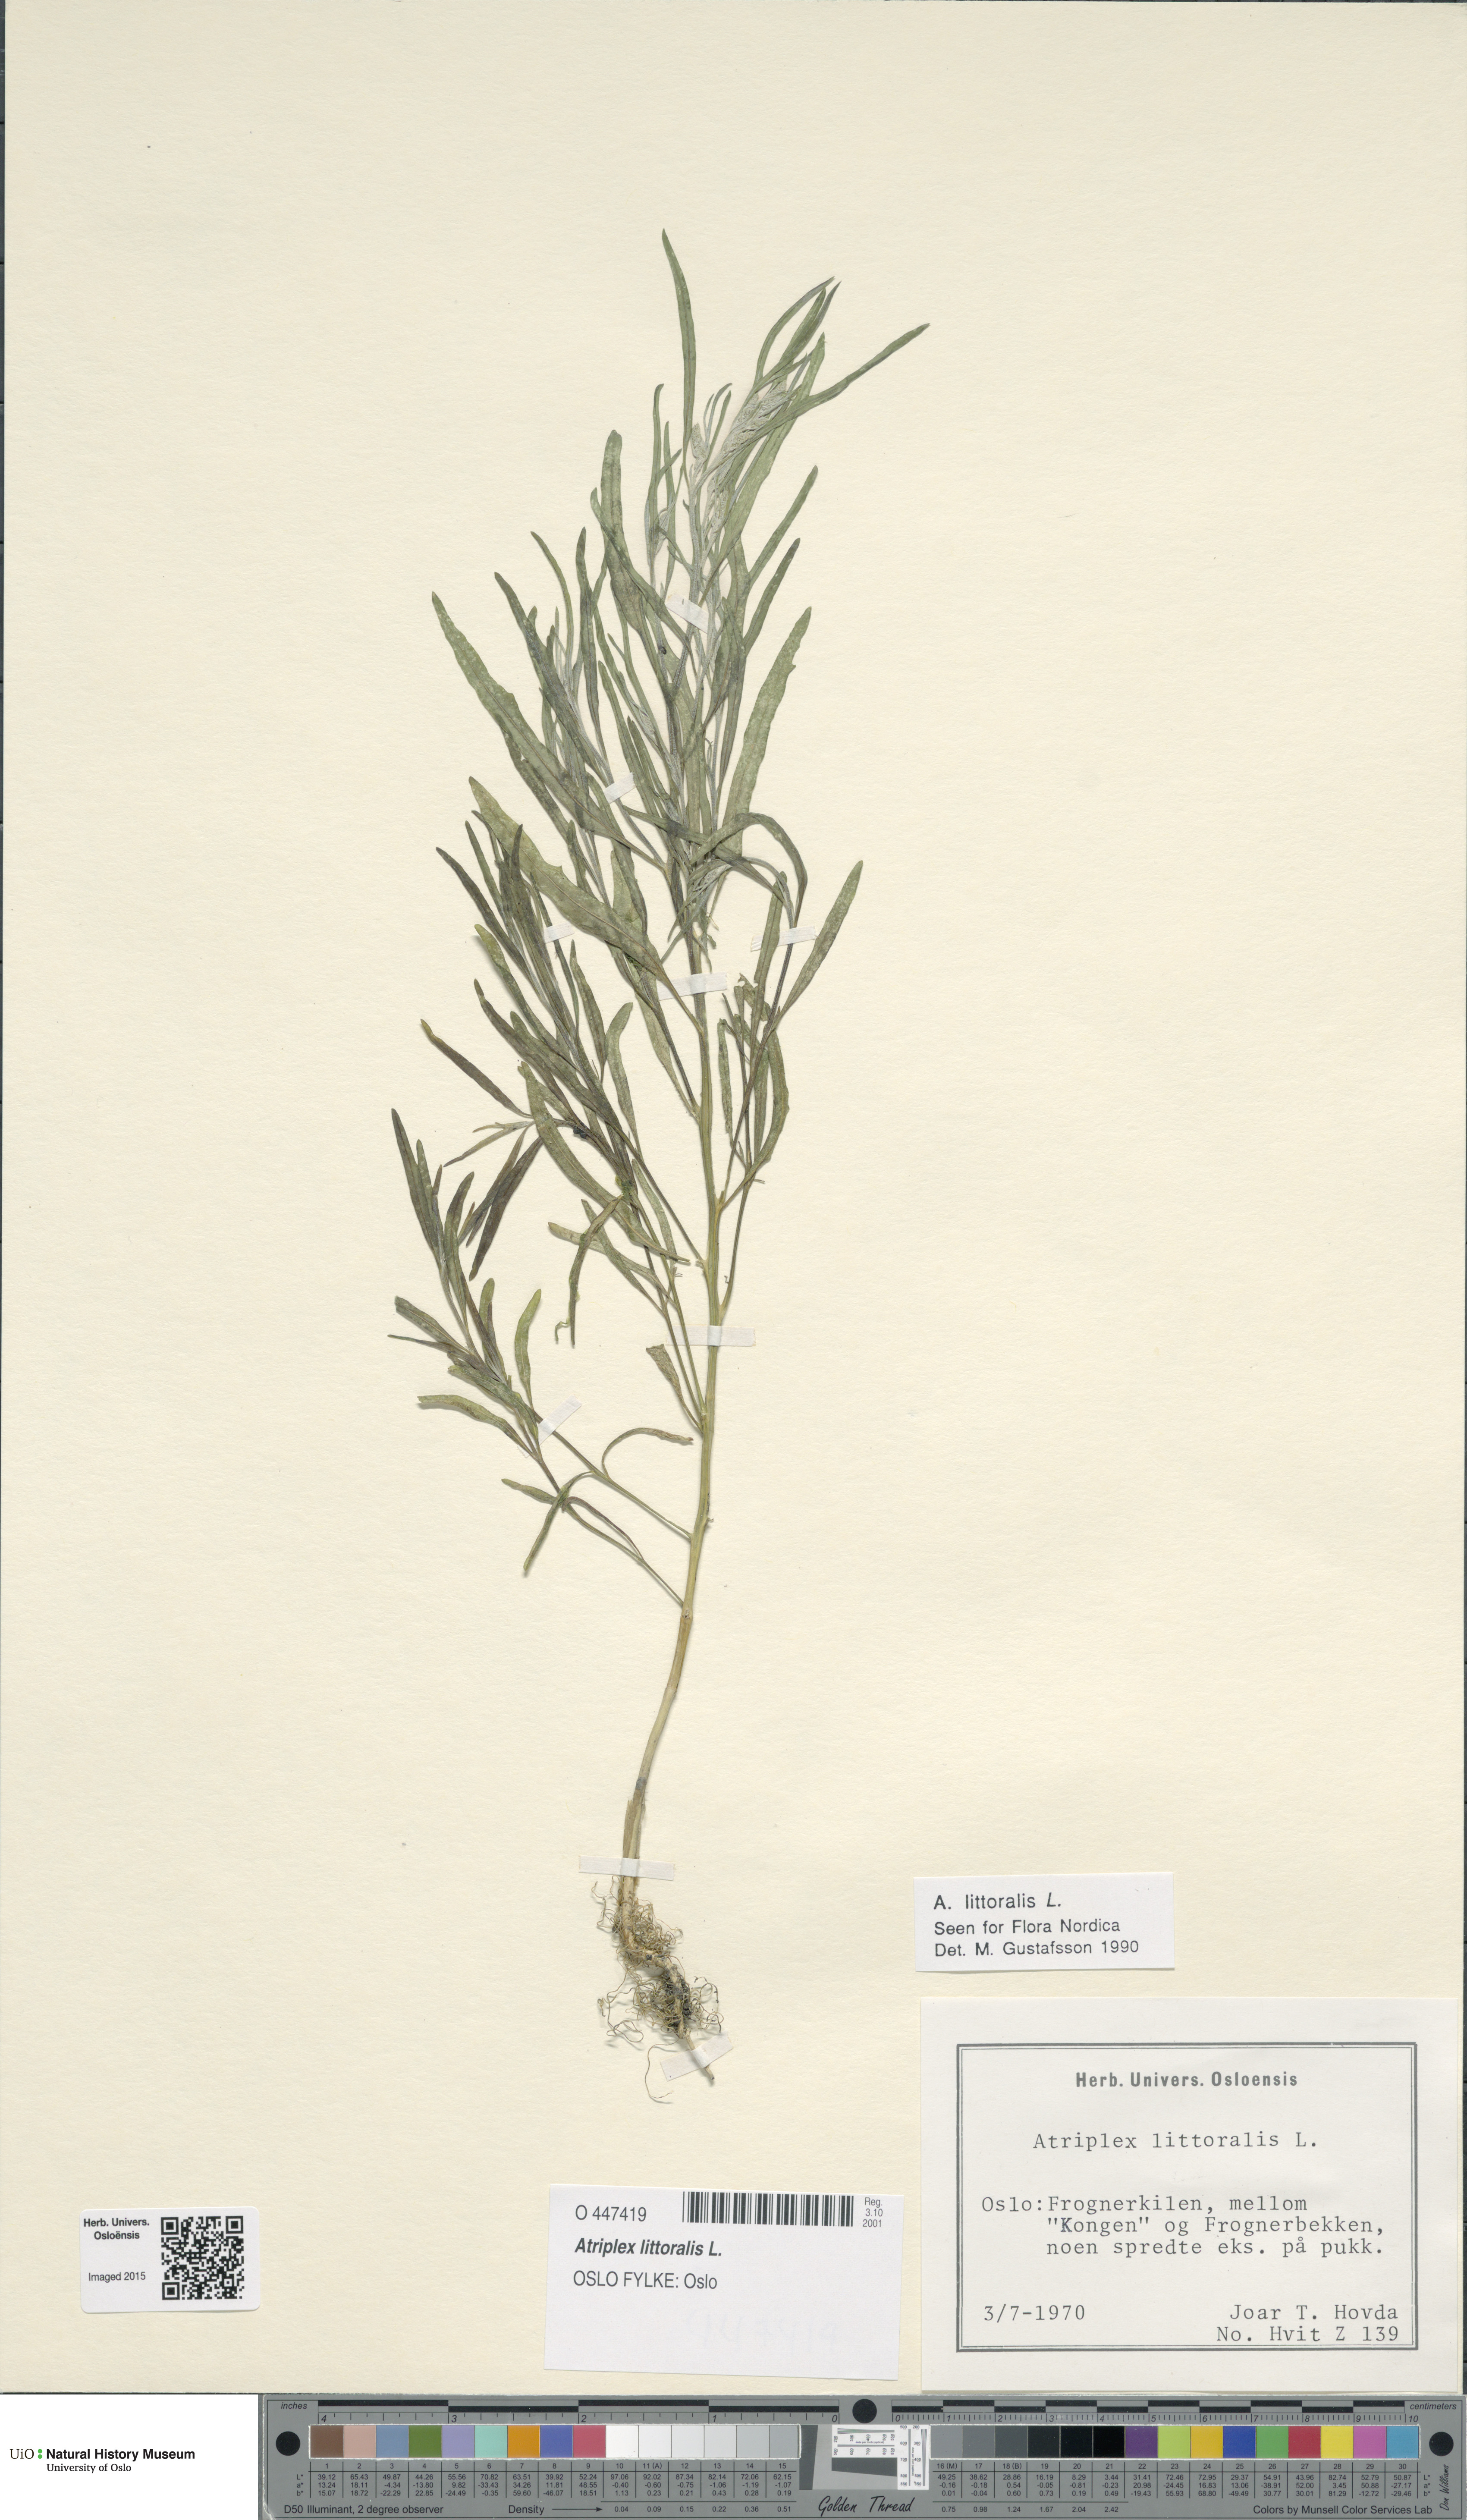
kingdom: Plantae
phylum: Tracheophyta
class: Magnoliopsida
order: Caryophyllales
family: Amaranthaceae
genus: Atriplex
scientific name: Atriplex littoralis
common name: Grass-leaved orache
